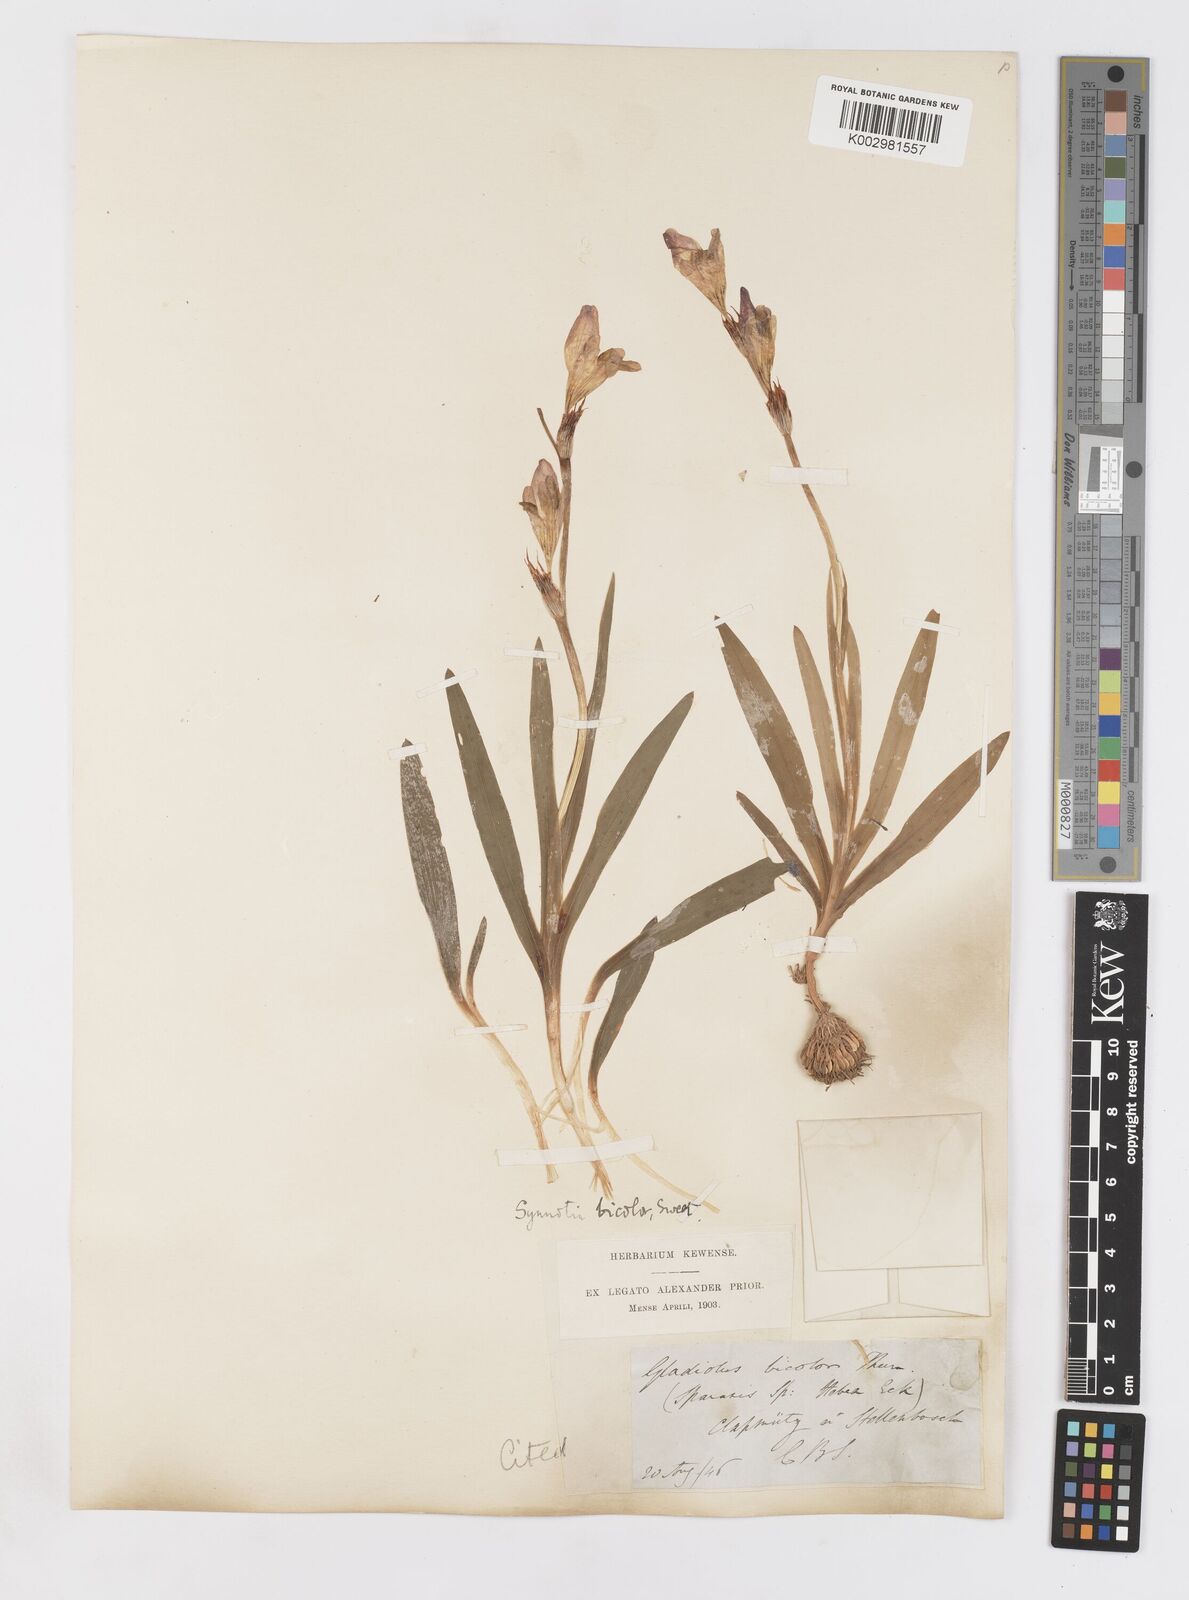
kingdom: Plantae
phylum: Tracheophyta
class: Liliopsida
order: Asparagales
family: Iridaceae
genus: Sparaxis
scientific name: Sparaxis villosa
